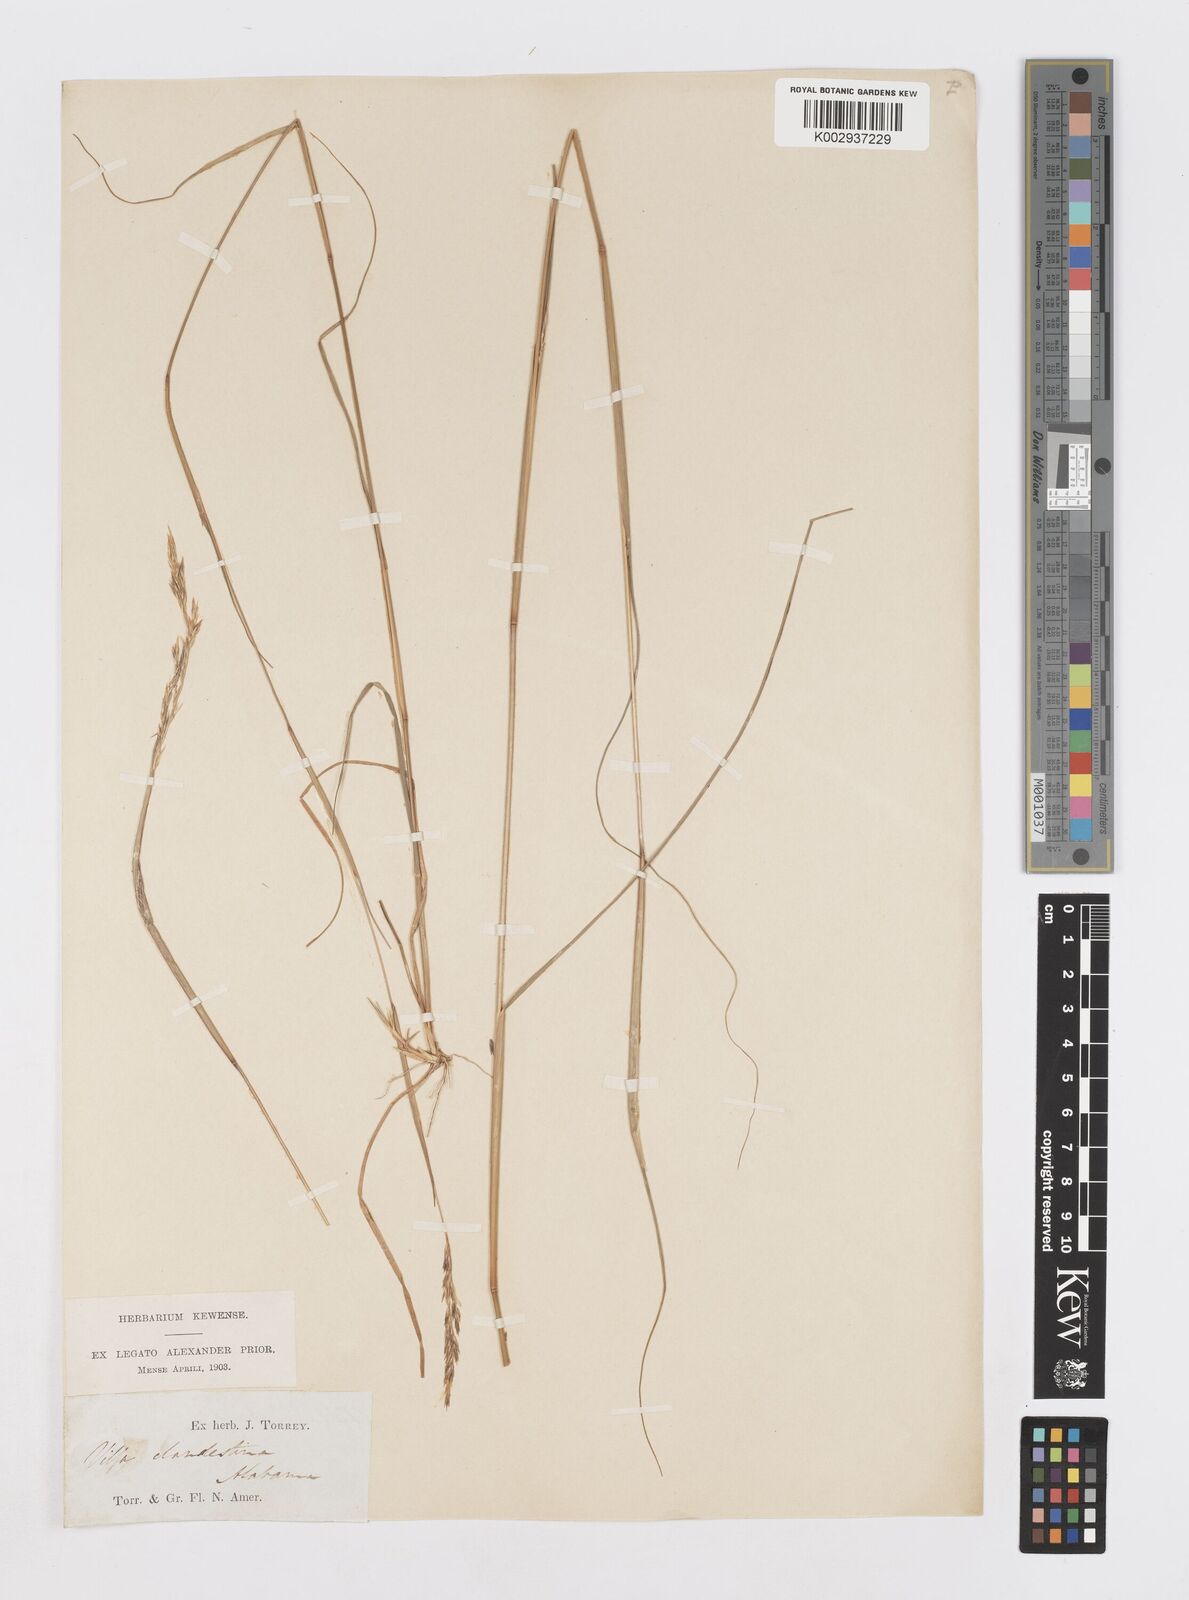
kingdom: Plantae
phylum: Tracheophyta
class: Liliopsida
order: Poales
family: Poaceae
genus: Sporobolus
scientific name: Sporobolus clandestinus
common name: Hidden dropseed
